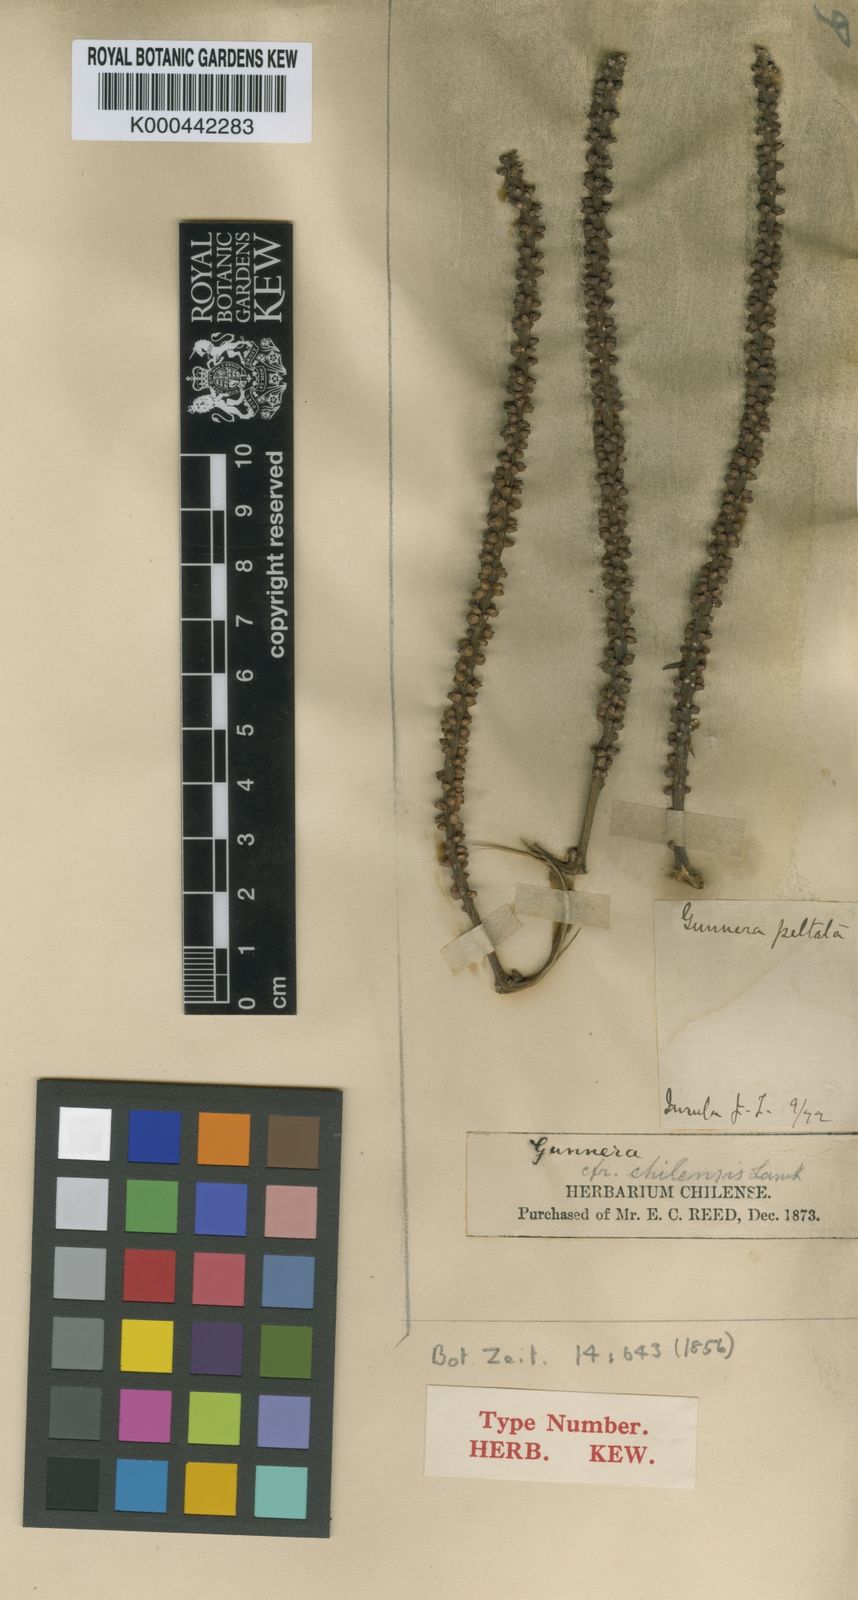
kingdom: Plantae
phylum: Tracheophyta
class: Magnoliopsida
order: Gunnerales
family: Gunneraceae
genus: Gunnera
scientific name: Gunnera peltata
